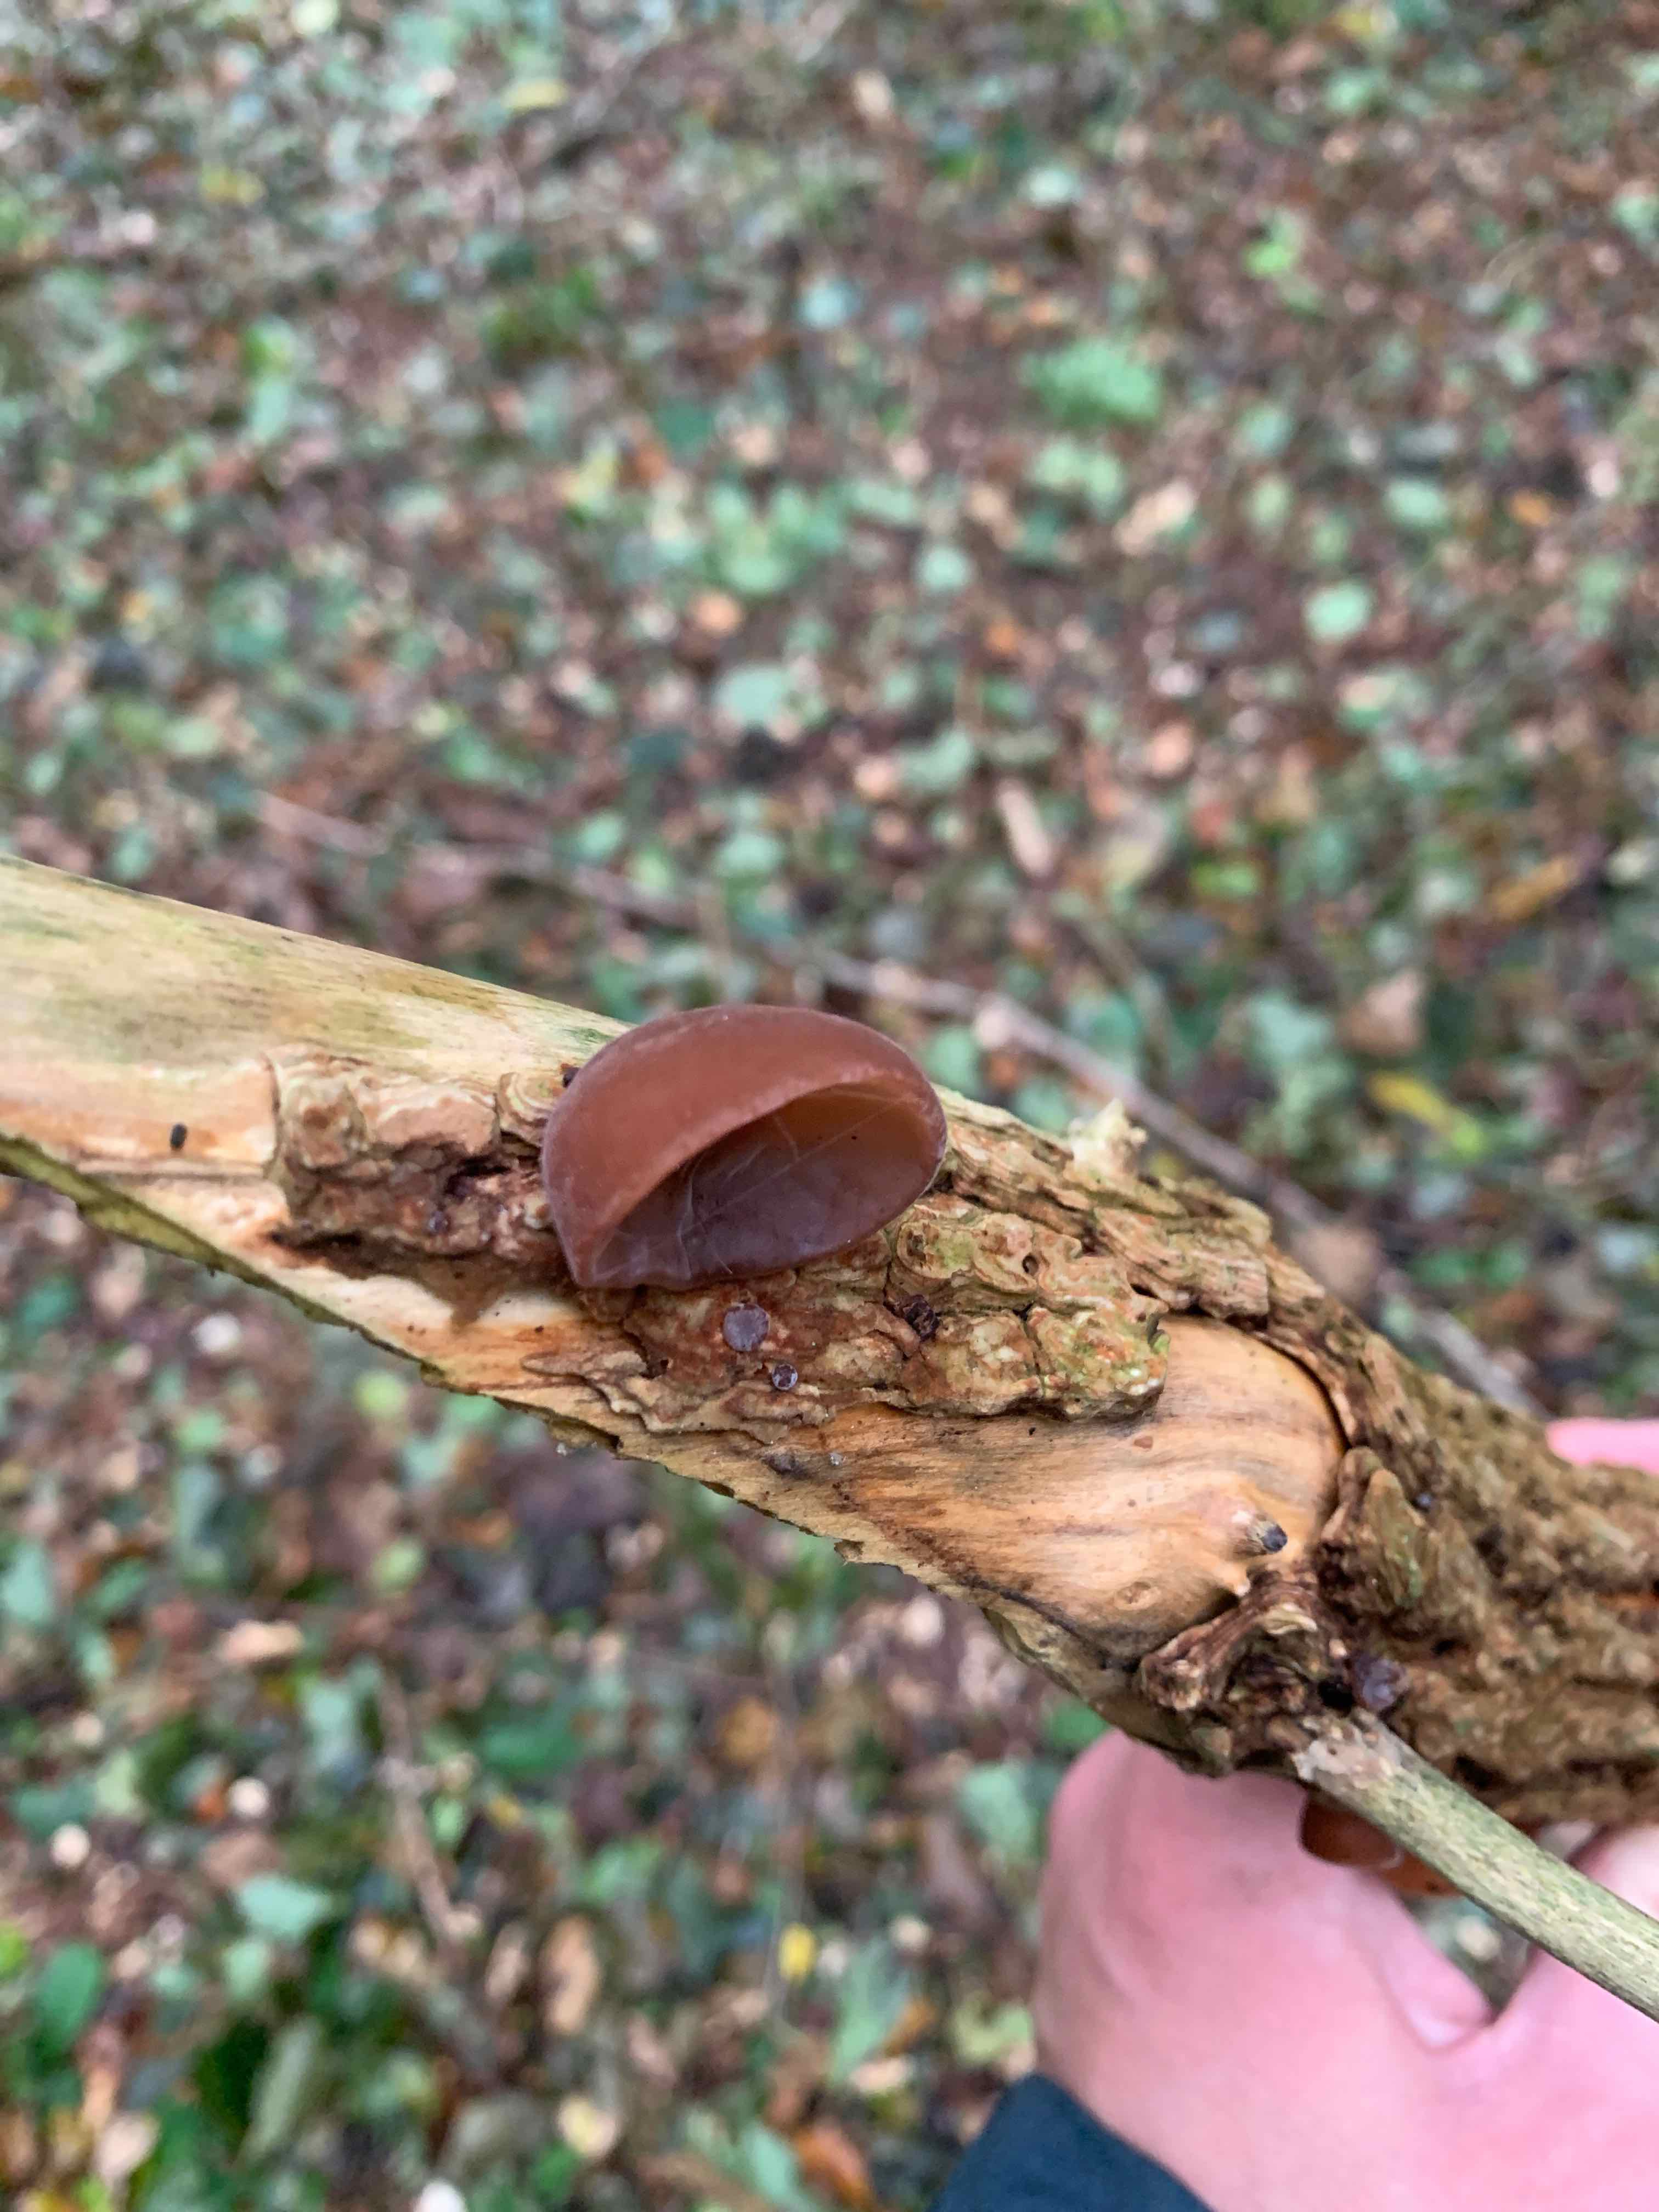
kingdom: Fungi
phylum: Basidiomycota
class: Agaricomycetes
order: Auriculariales
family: Auriculariaceae
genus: Auricularia
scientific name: Auricularia auricula-judae
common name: almindelig judasøre
